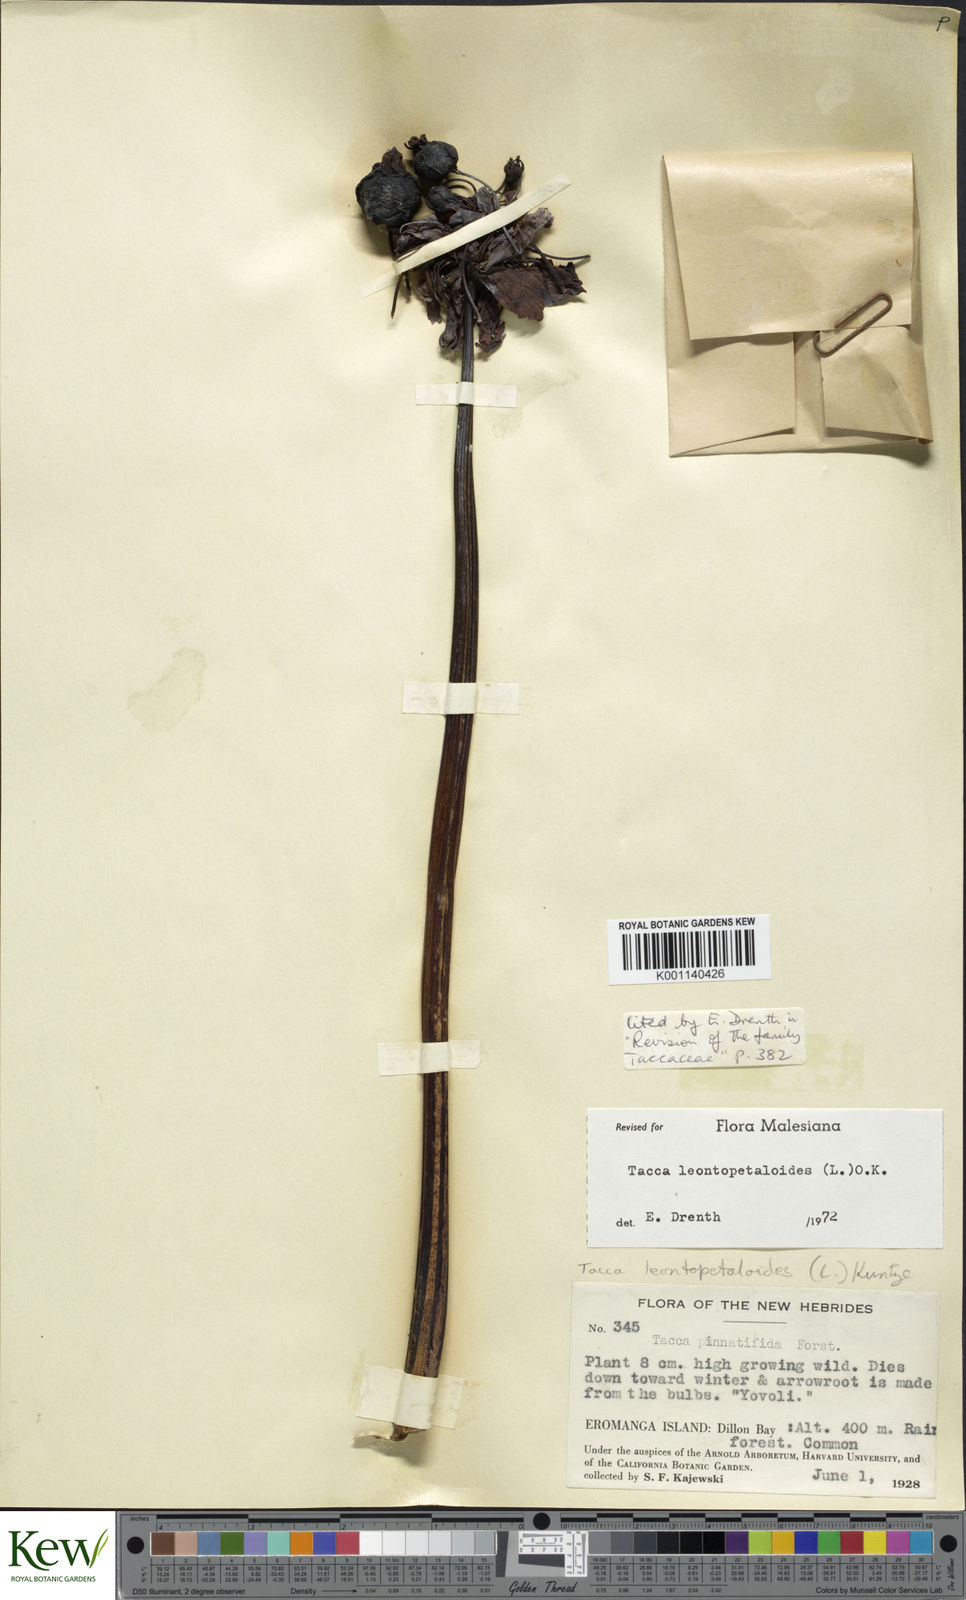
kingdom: Plantae
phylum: Tracheophyta
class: Liliopsida
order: Dioscoreales
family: Dioscoreaceae
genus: Tacca
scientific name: Tacca leontopetaloides
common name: Arrowroot
